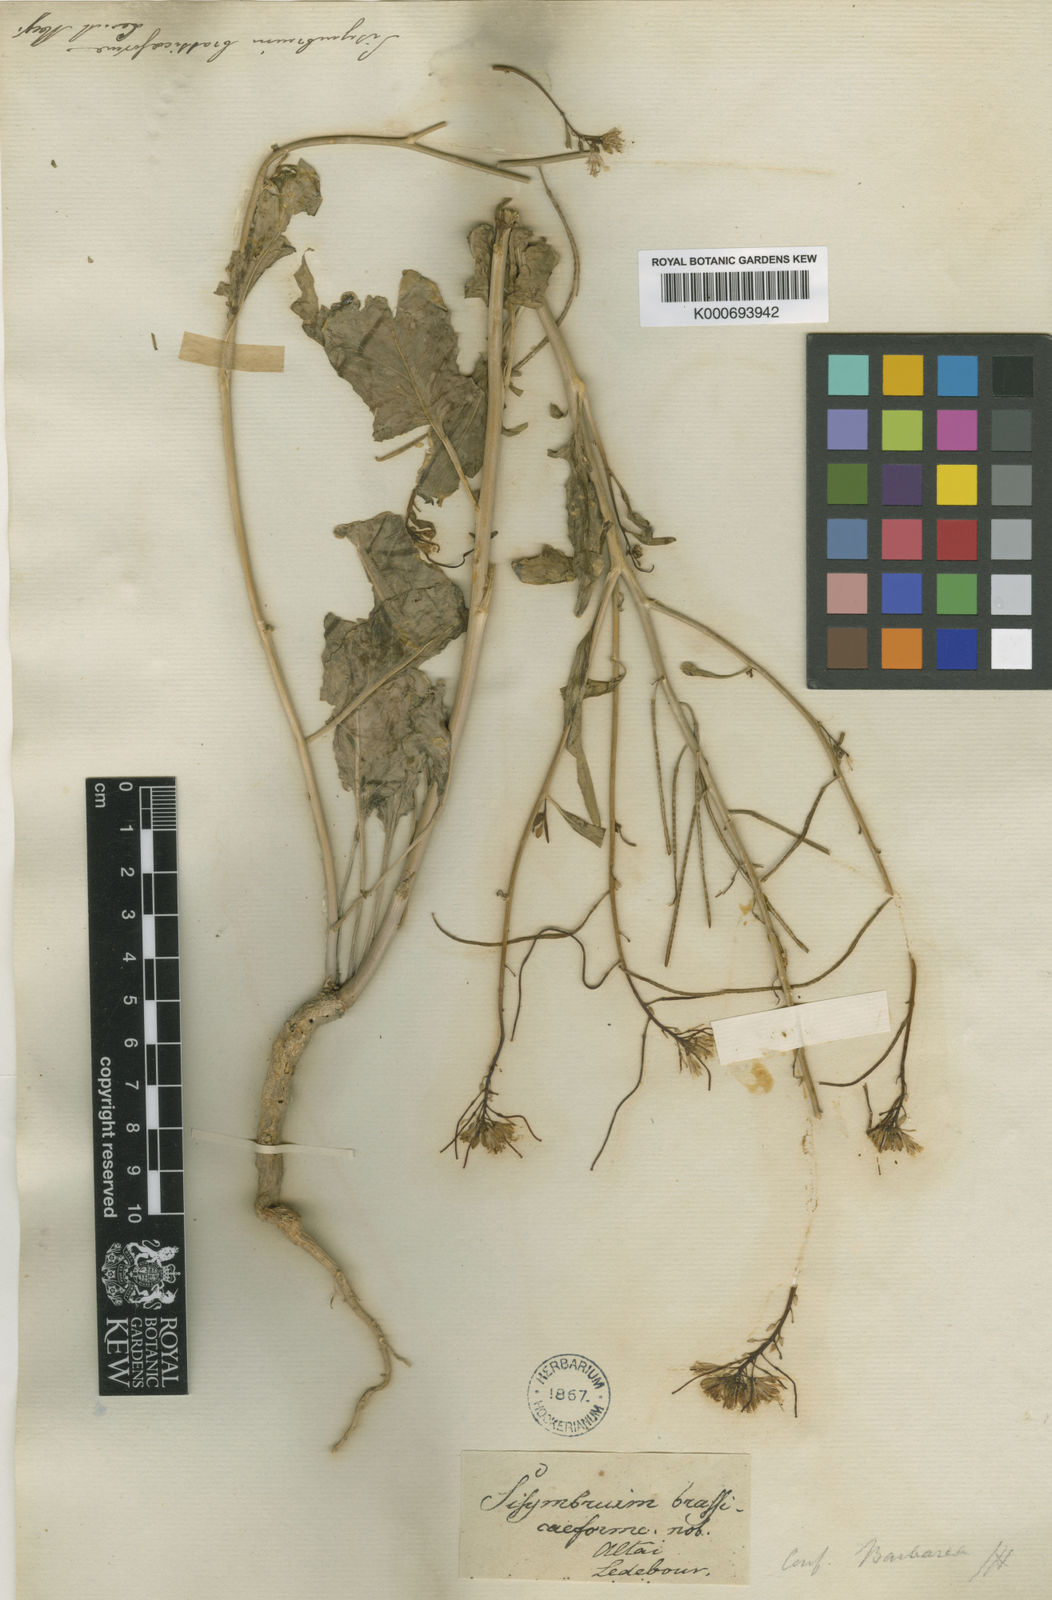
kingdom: Plantae
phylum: Tracheophyta
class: Magnoliopsida
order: Brassicales
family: Brassicaceae
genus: Sisymbrium
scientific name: Sisymbrium brassiciforme
